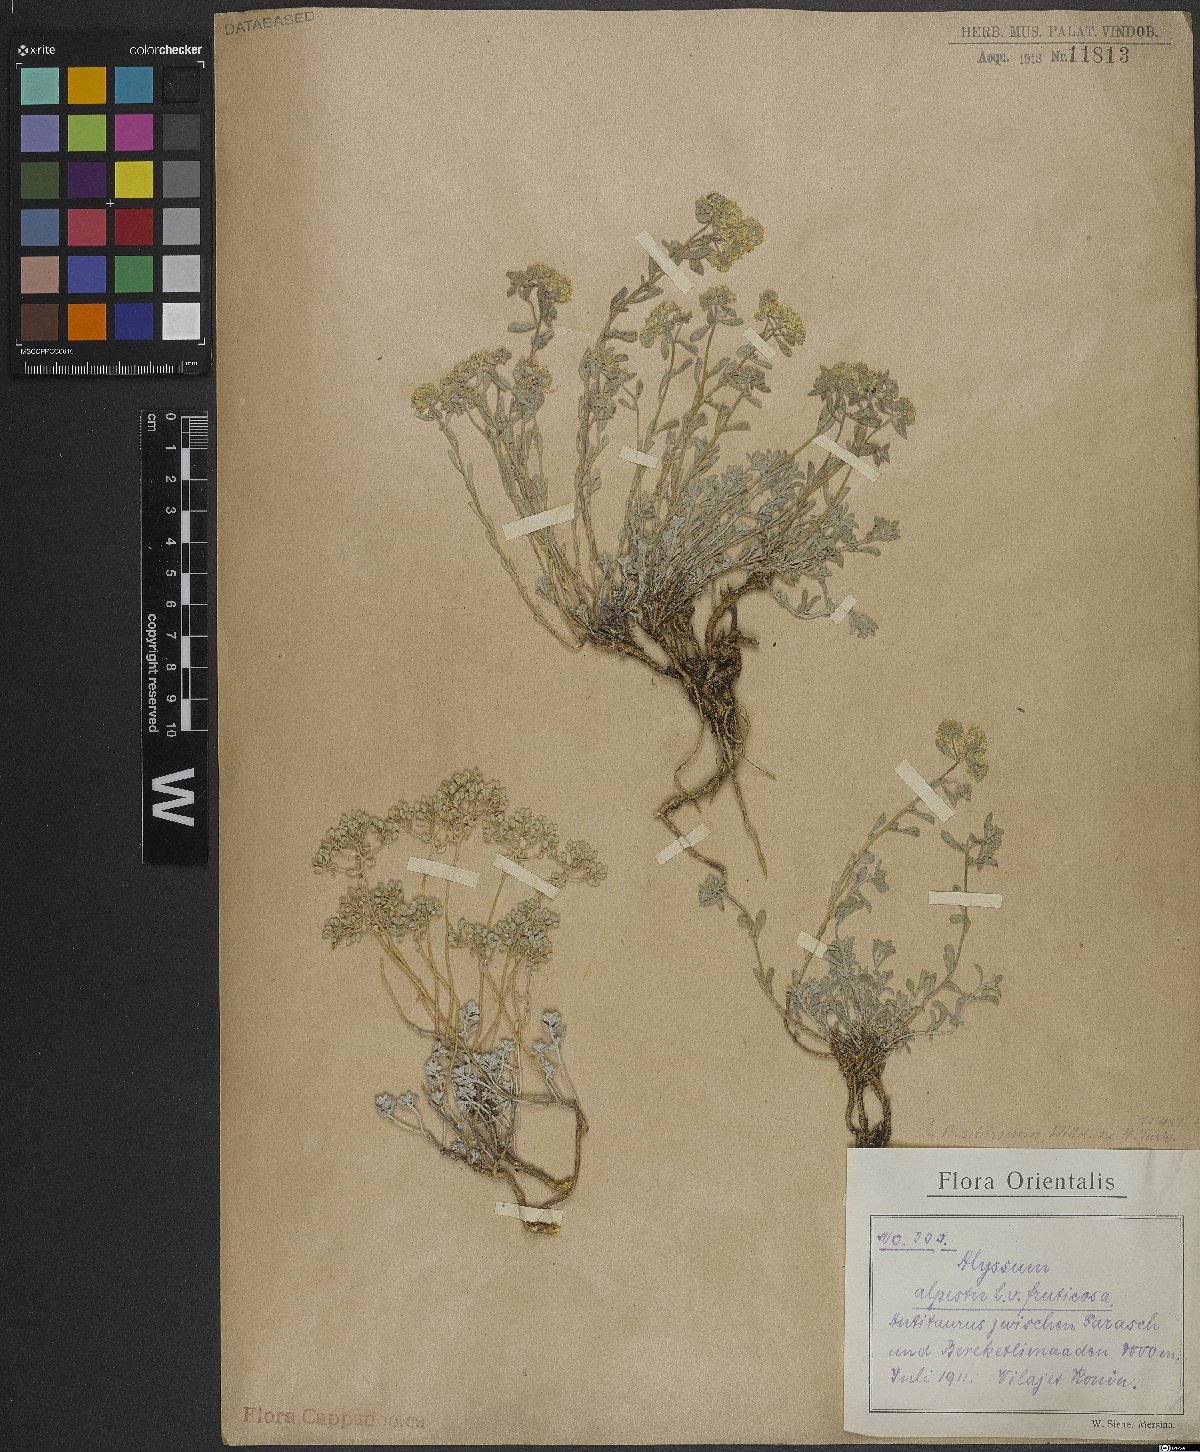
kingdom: Plantae
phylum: Tracheophyta
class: Magnoliopsida
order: Brassicales
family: Brassicaceae
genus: Odontarrhena
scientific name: Odontarrhena sibirica
